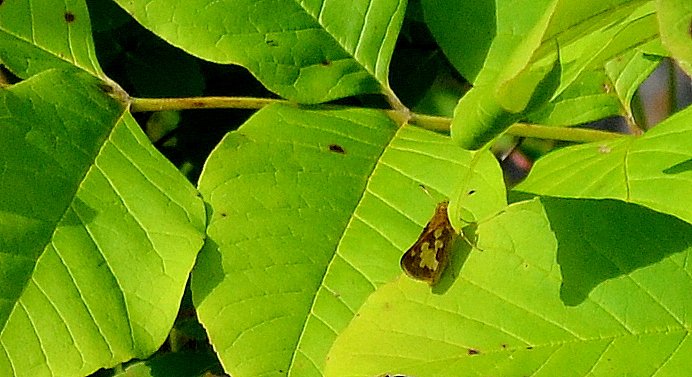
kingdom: Animalia
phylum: Arthropoda
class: Insecta
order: Lepidoptera
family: Hesperiidae
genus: Polites
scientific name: Polites coras
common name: Peck's Skipper
